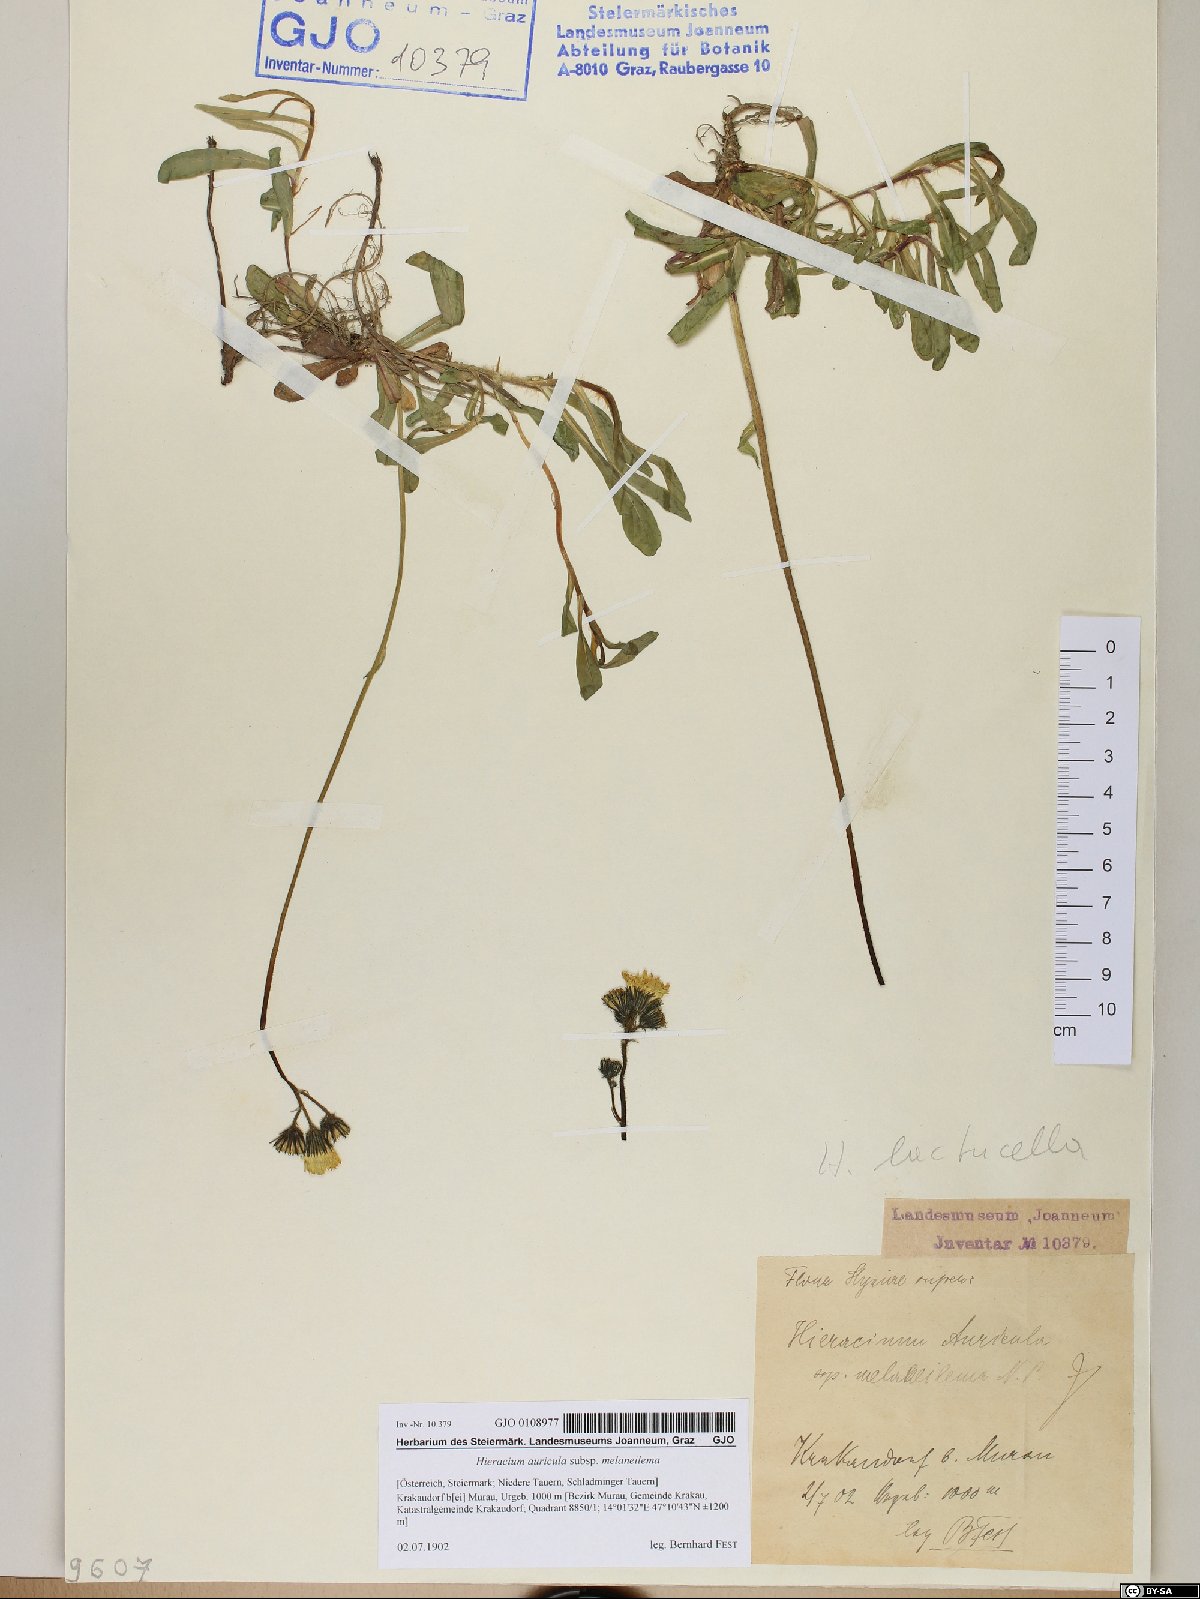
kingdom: Plantae
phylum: Tracheophyta
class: Magnoliopsida
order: Asterales
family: Asteraceae
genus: Pilosella
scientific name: Pilosella lactucella
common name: Glaucous fox-and-cubs
